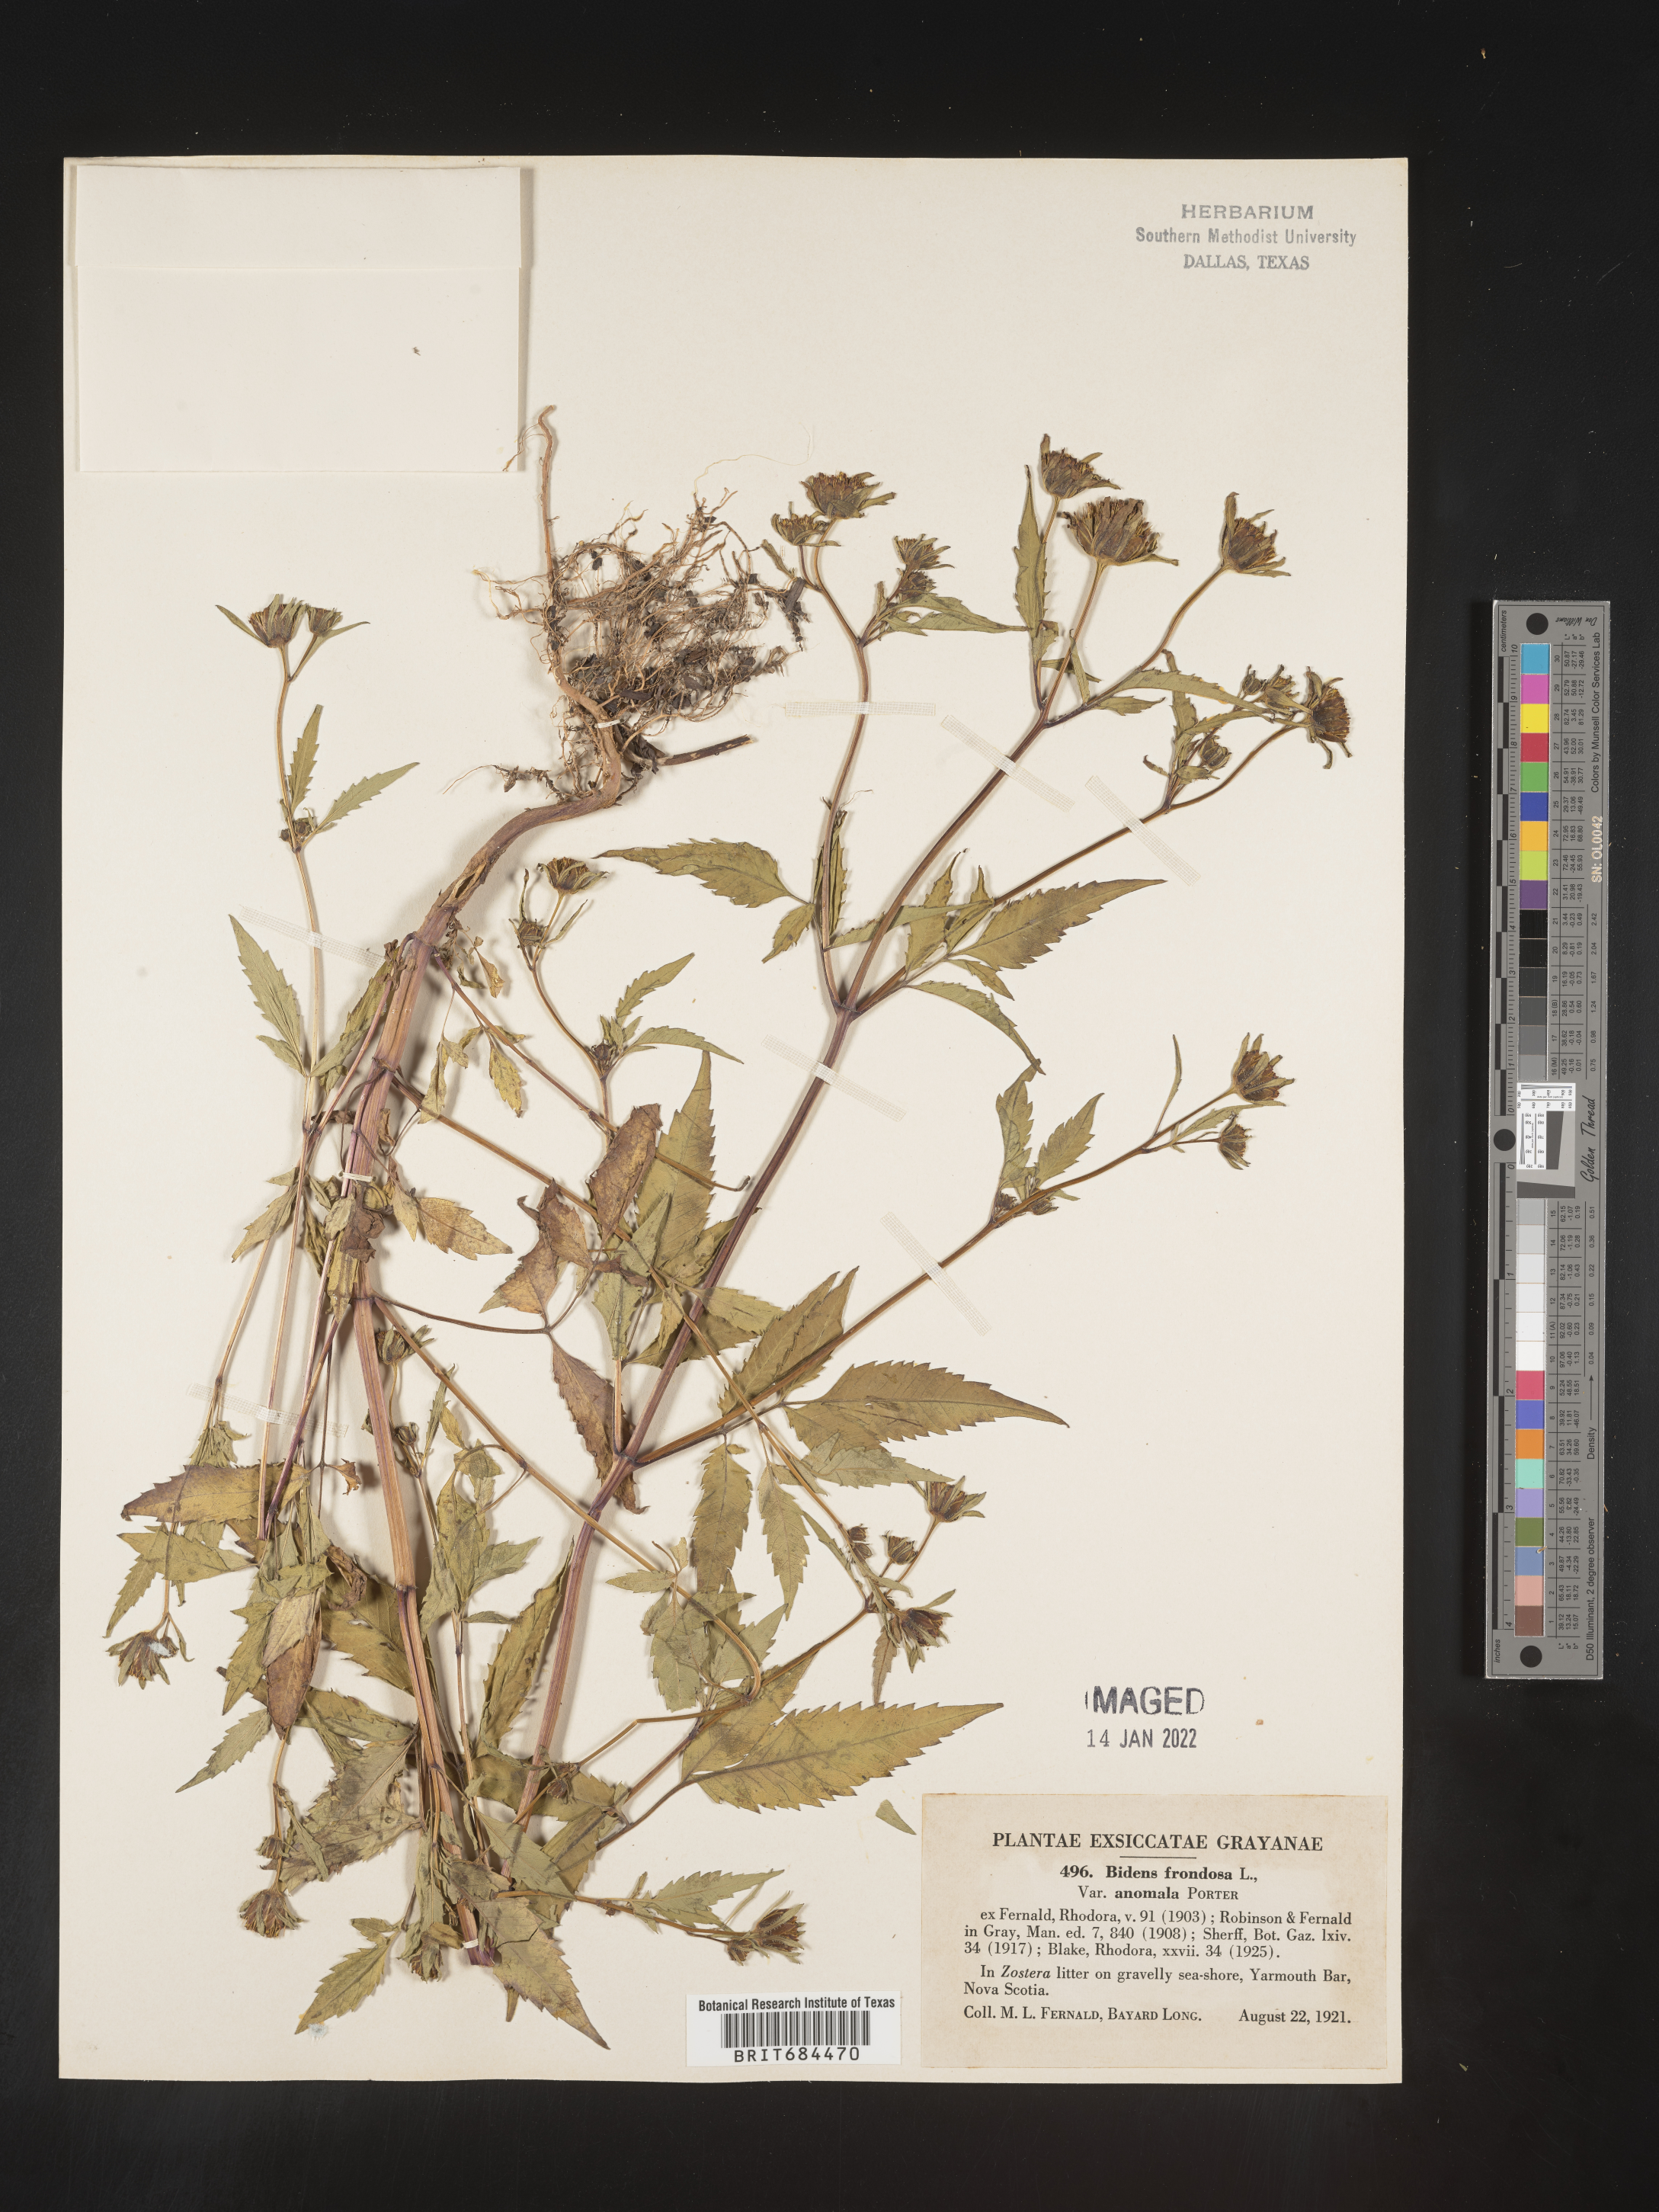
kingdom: Plantae
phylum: Tracheophyta
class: Magnoliopsida
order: Asterales
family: Asteraceae
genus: Bidens
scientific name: Bidens frondosa
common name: Beggarticks
